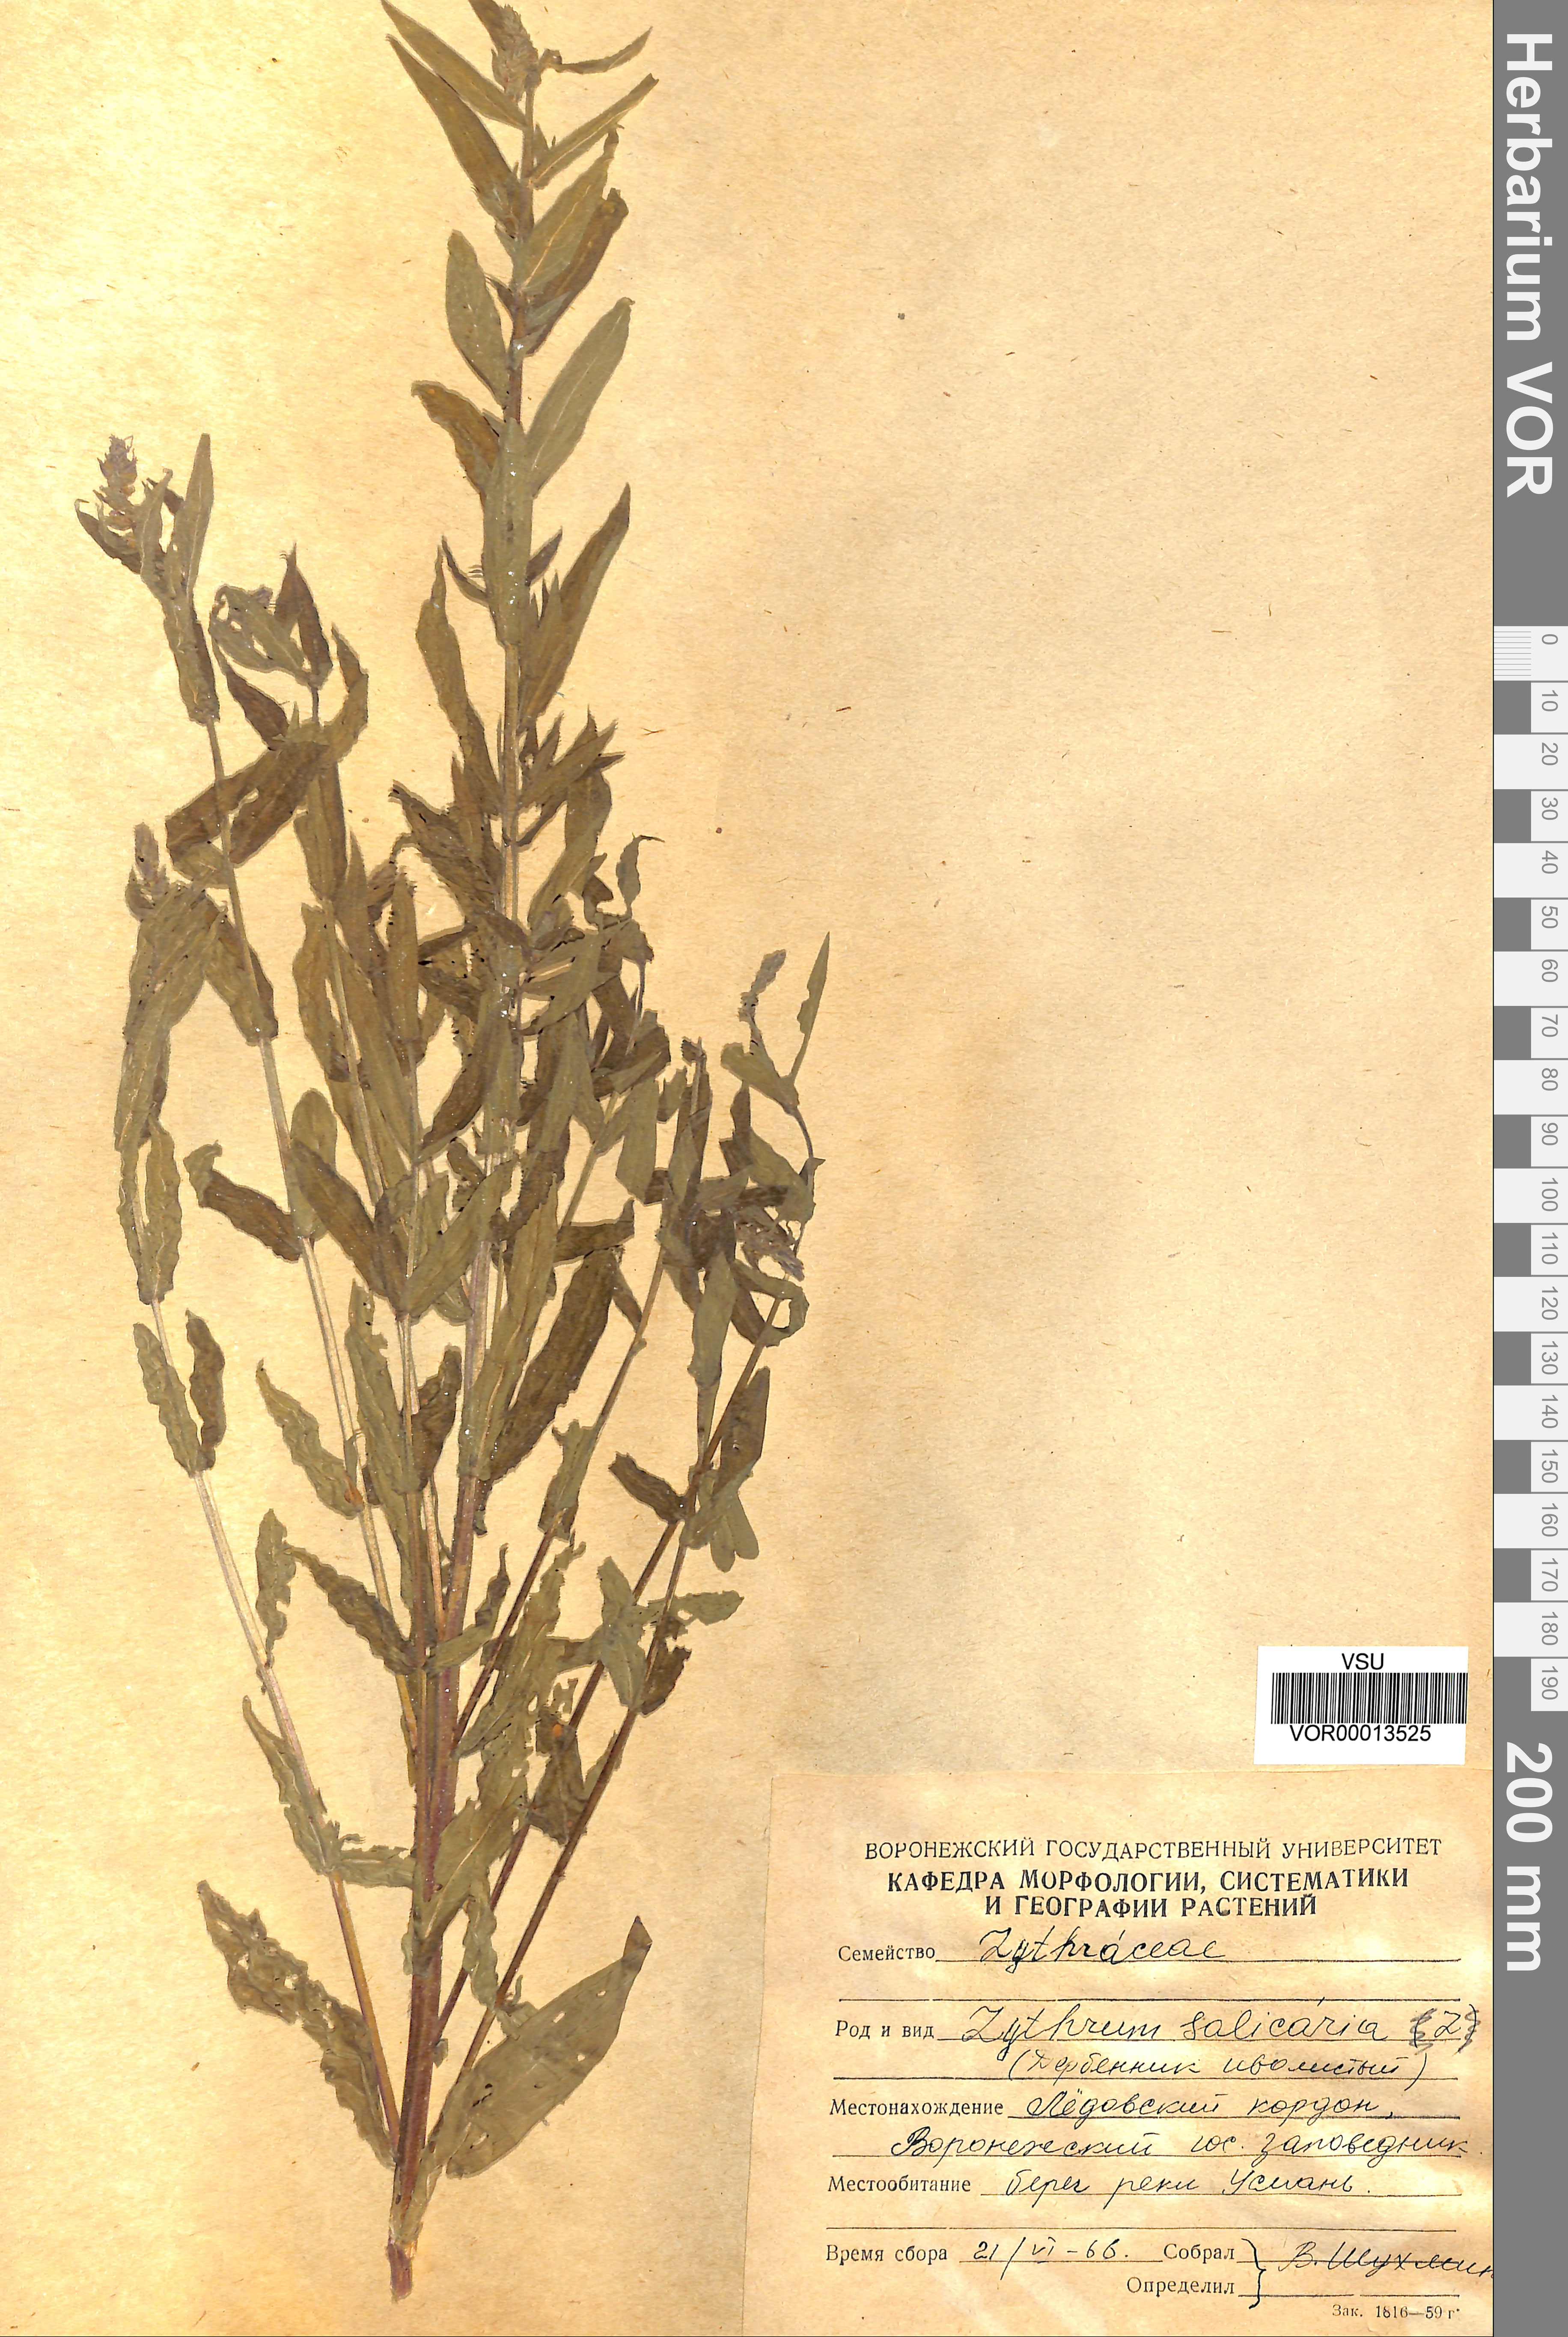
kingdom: Plantae
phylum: Tracheophyta
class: Magnoliopsida
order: Myrtales
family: Lythraceae
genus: Lythrum
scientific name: Lythrum salicaria
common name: Purple loosestrife
